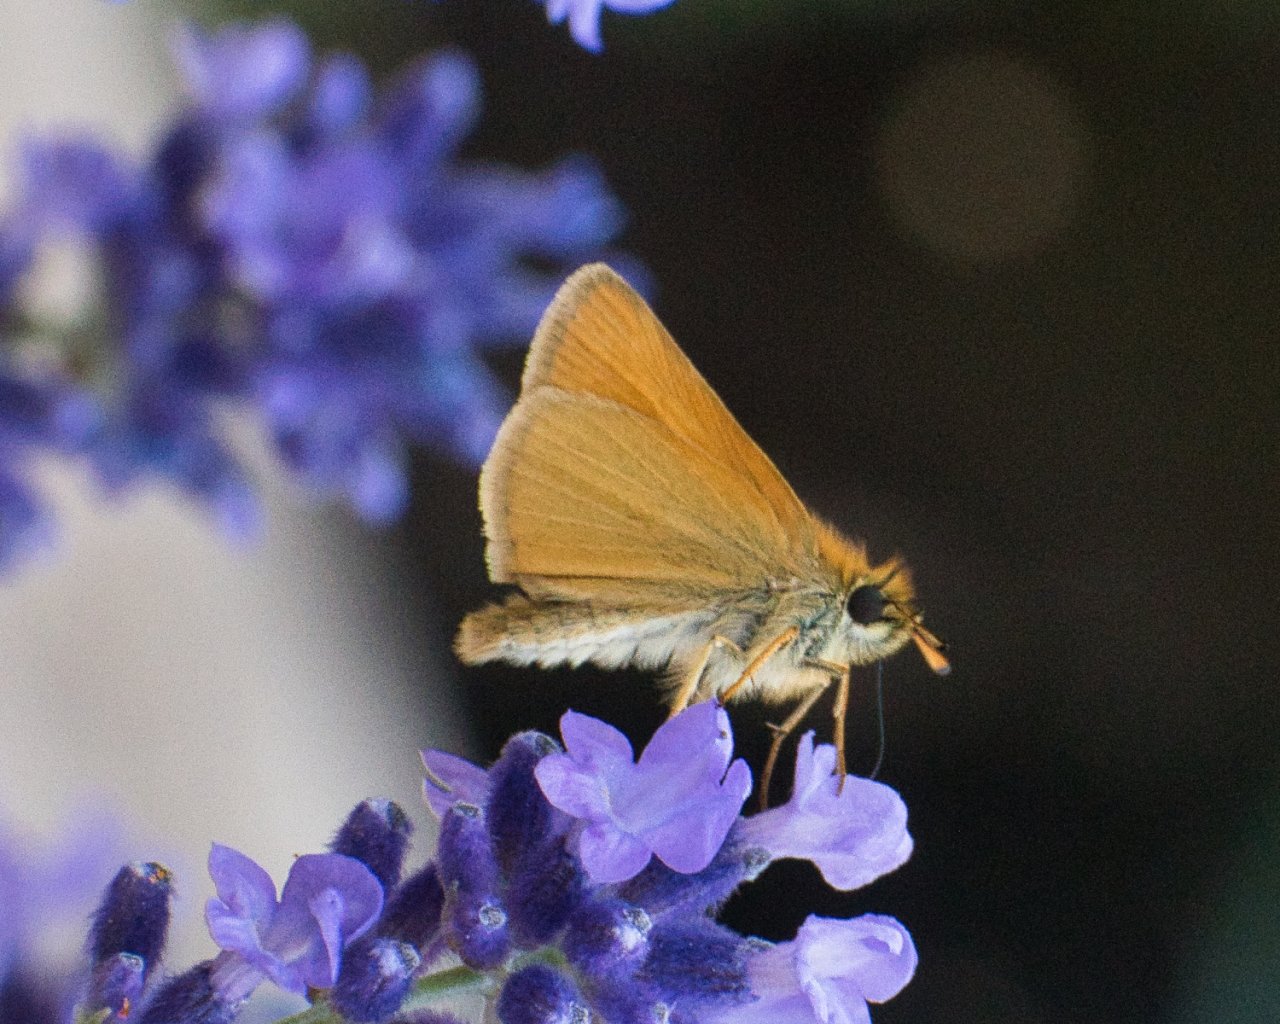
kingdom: Animalia
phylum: Arthropoda
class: Insecta
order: Lepidoptera
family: Hesperiidae
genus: Thymelicus
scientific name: Thymelicus lineola
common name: European Skipper
